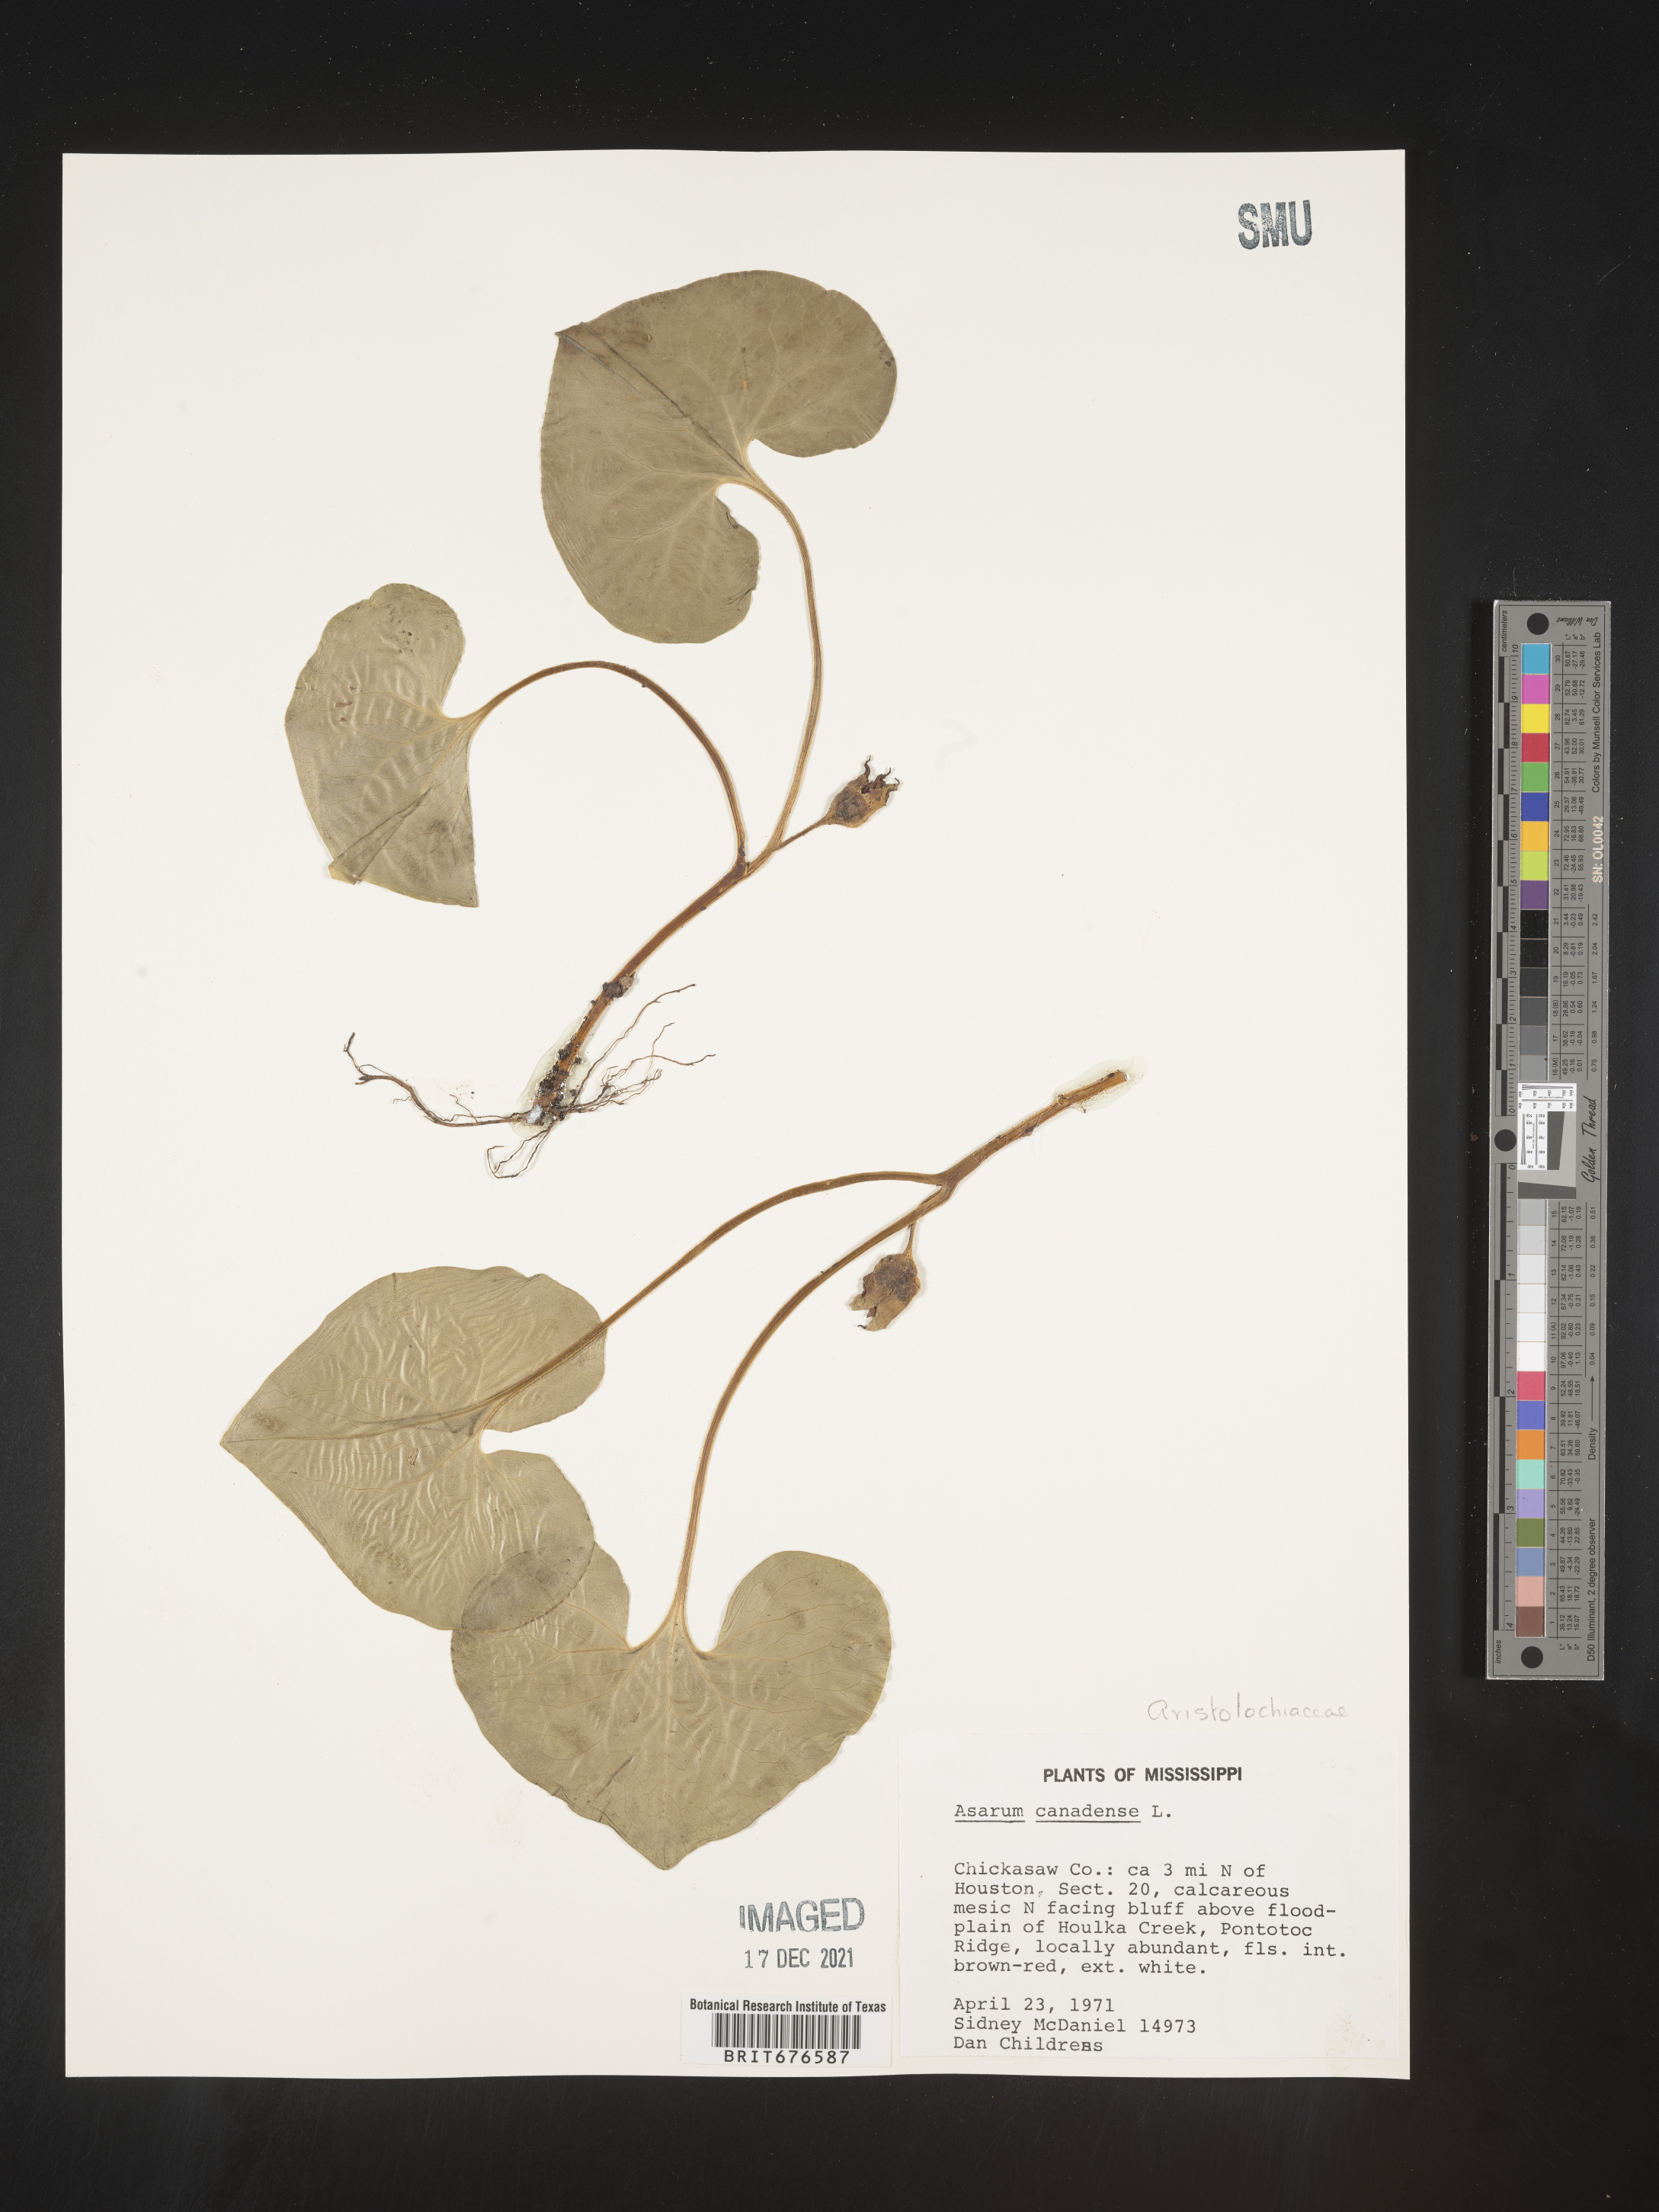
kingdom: Plantae
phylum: Tracheophyta
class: Magnoliopsida
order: Piperales
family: Aristolochiaceae
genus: Asarum
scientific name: Asarum canadense
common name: Wild ginger
